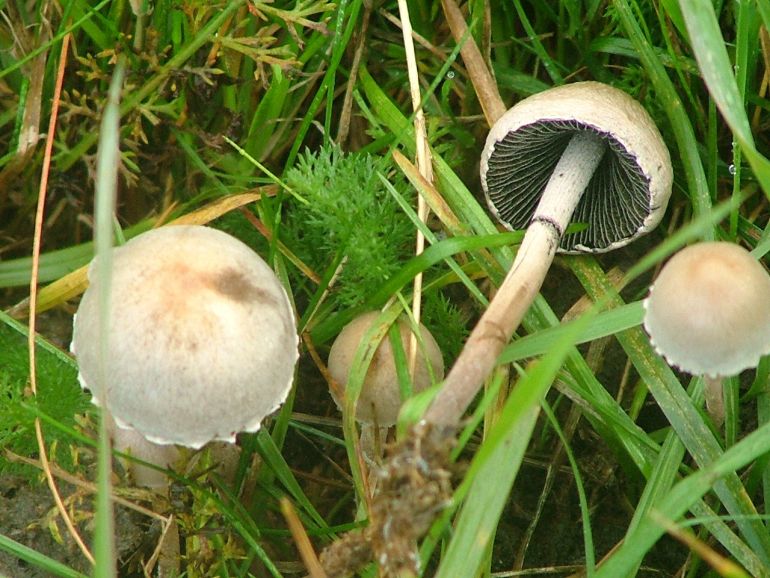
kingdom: Fungi
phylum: Basidiomycota
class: Agaricomycetes
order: Agaricales
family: Bolbitiaceae
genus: Panaeolus
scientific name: Panaeolus papilionaceus
